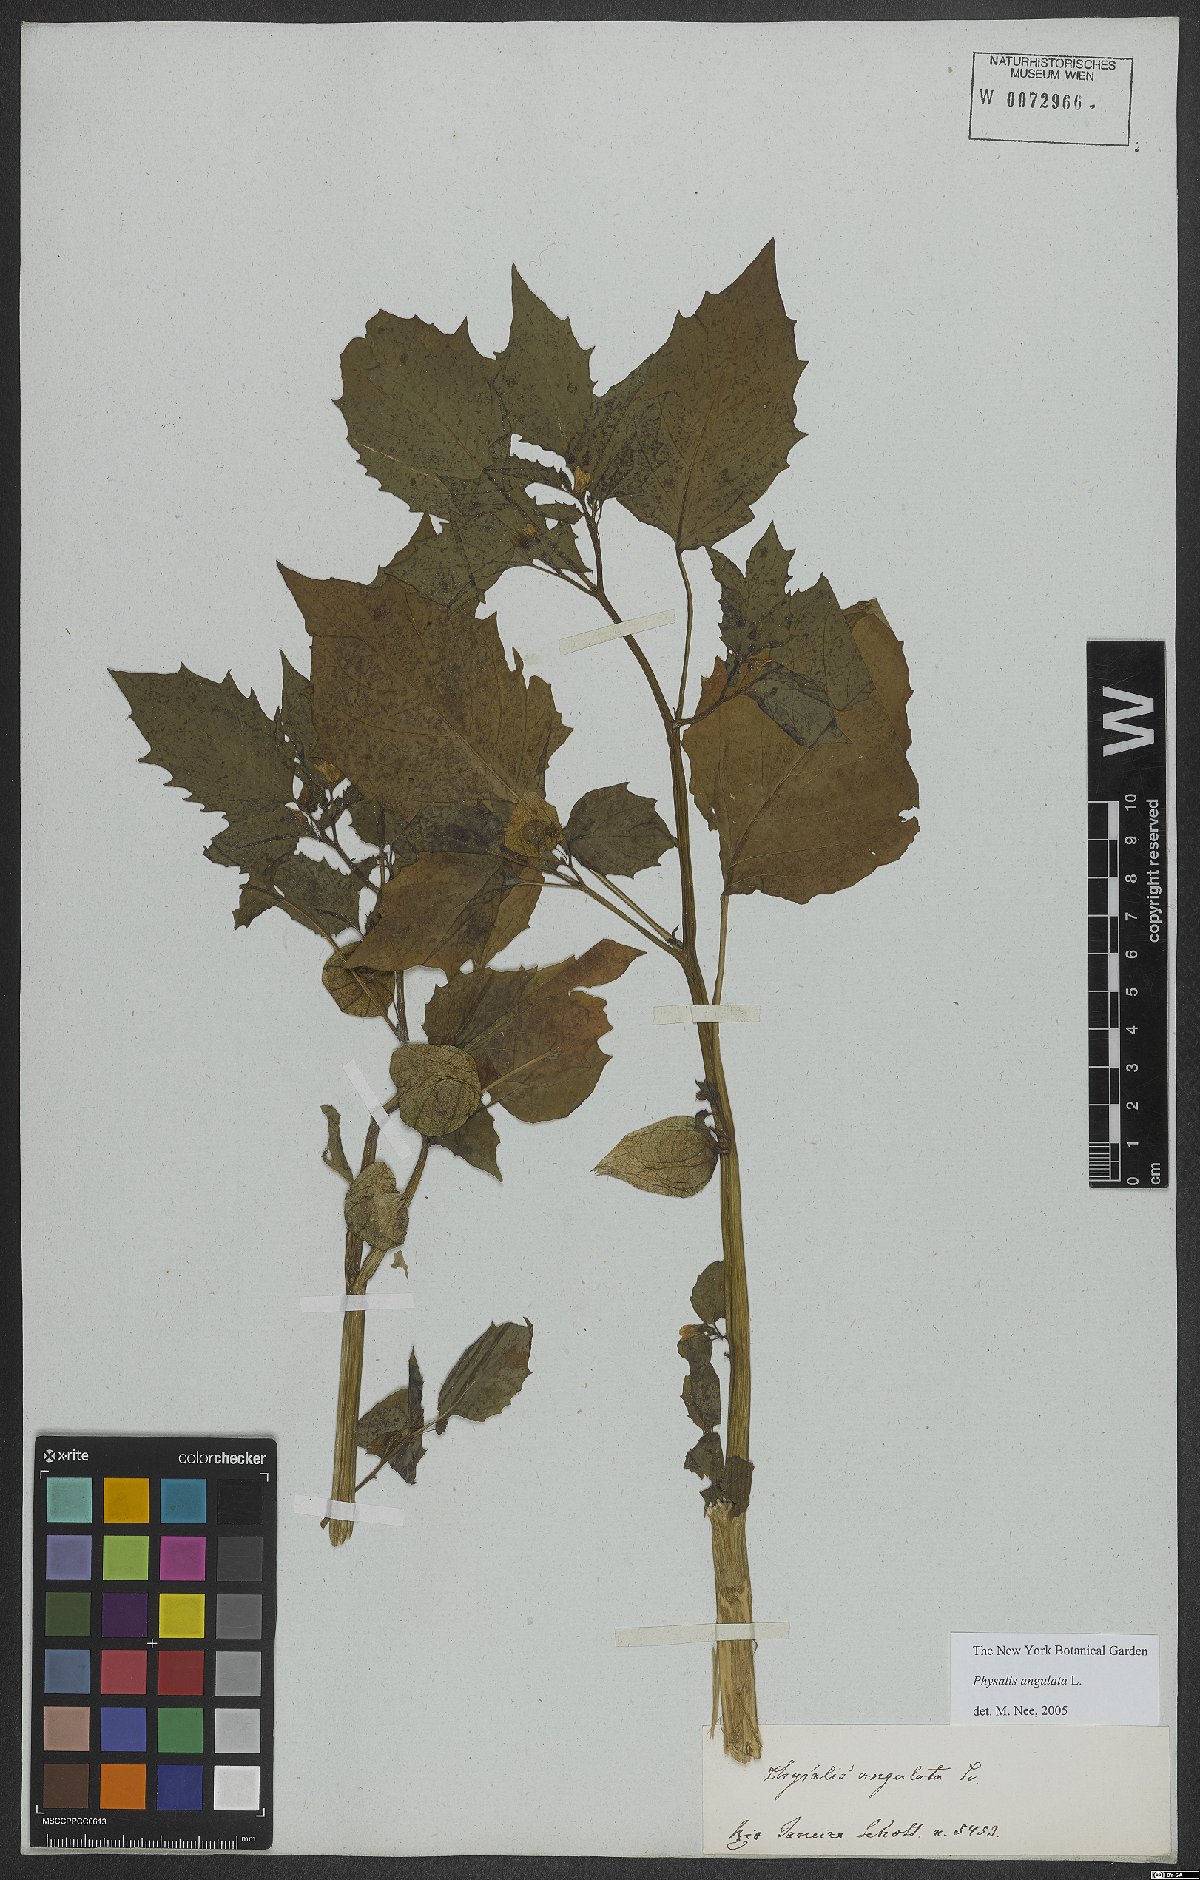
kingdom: Plantae
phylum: Tracheophyta
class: Magnoliopsida
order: Solanales
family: Solanaceae
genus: Physalis
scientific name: Physalis angulata
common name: Angular winter-cherry
